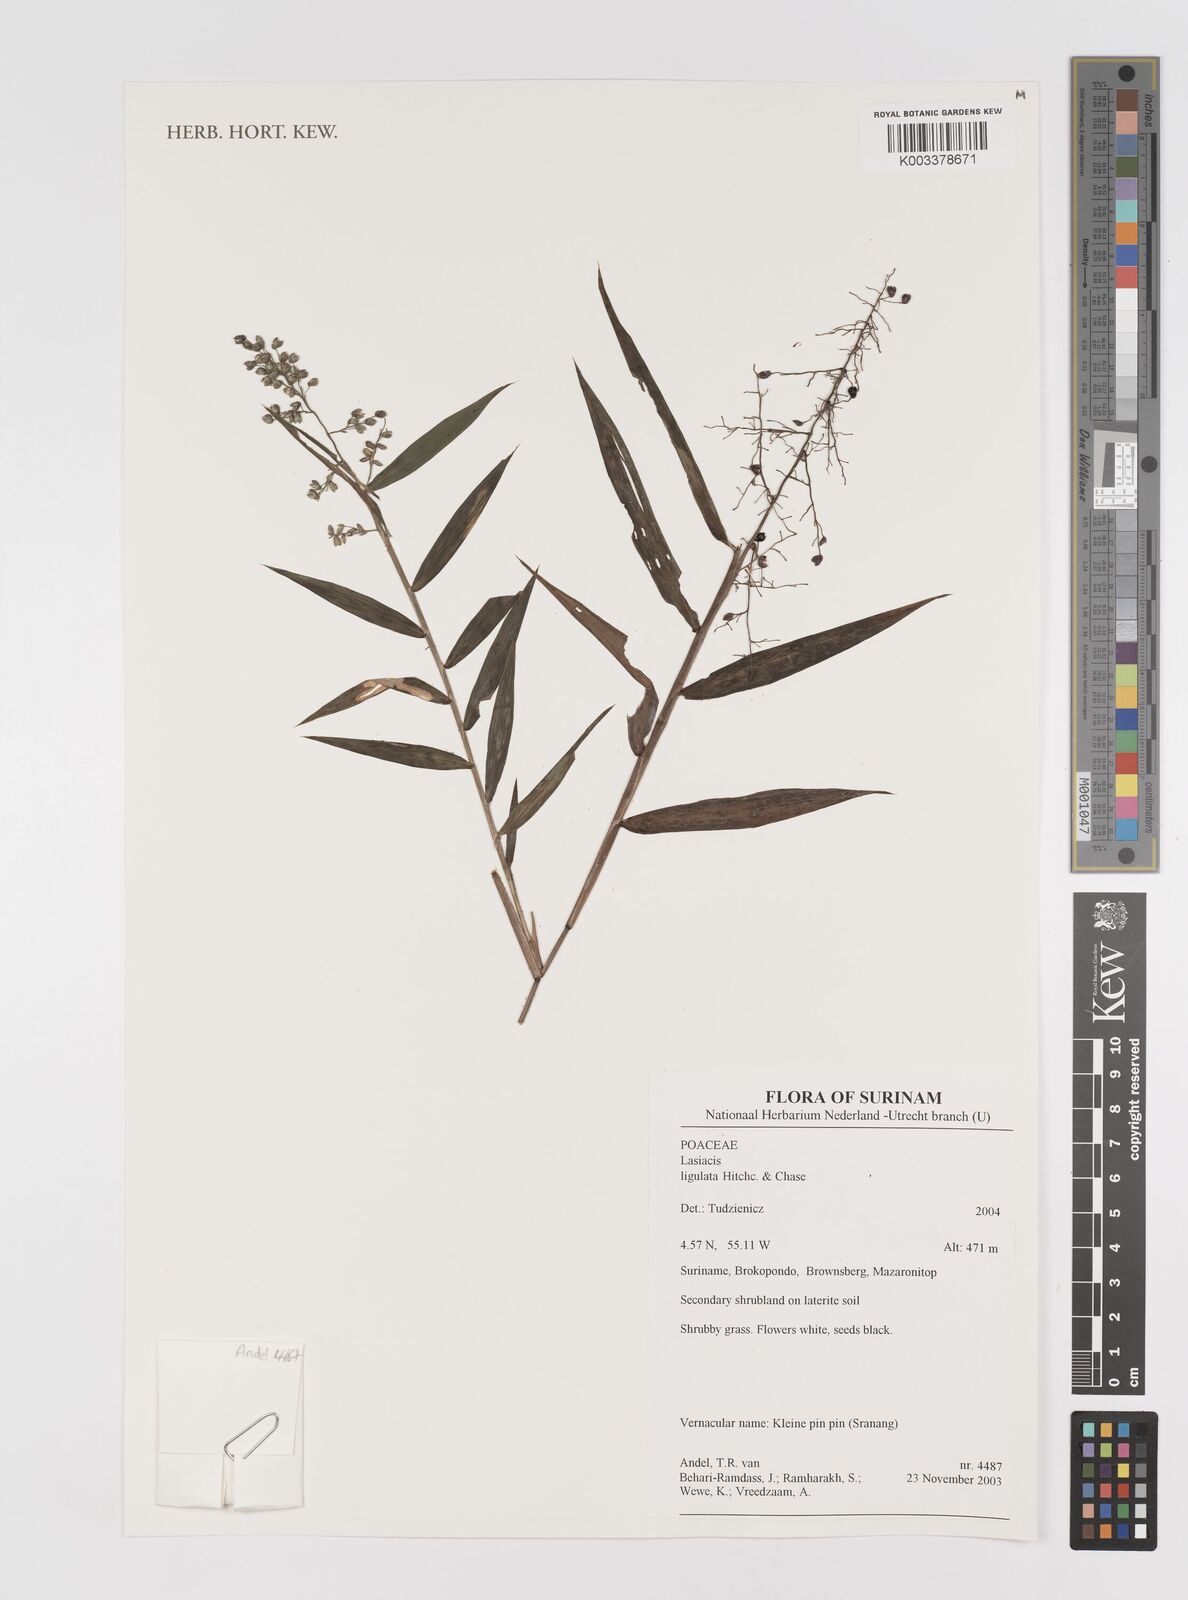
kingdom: Plantae
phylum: Tracheophyta
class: Liliopsida
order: Poales
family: Poaceae
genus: Lasiacis
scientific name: Lasiacis ligulata
